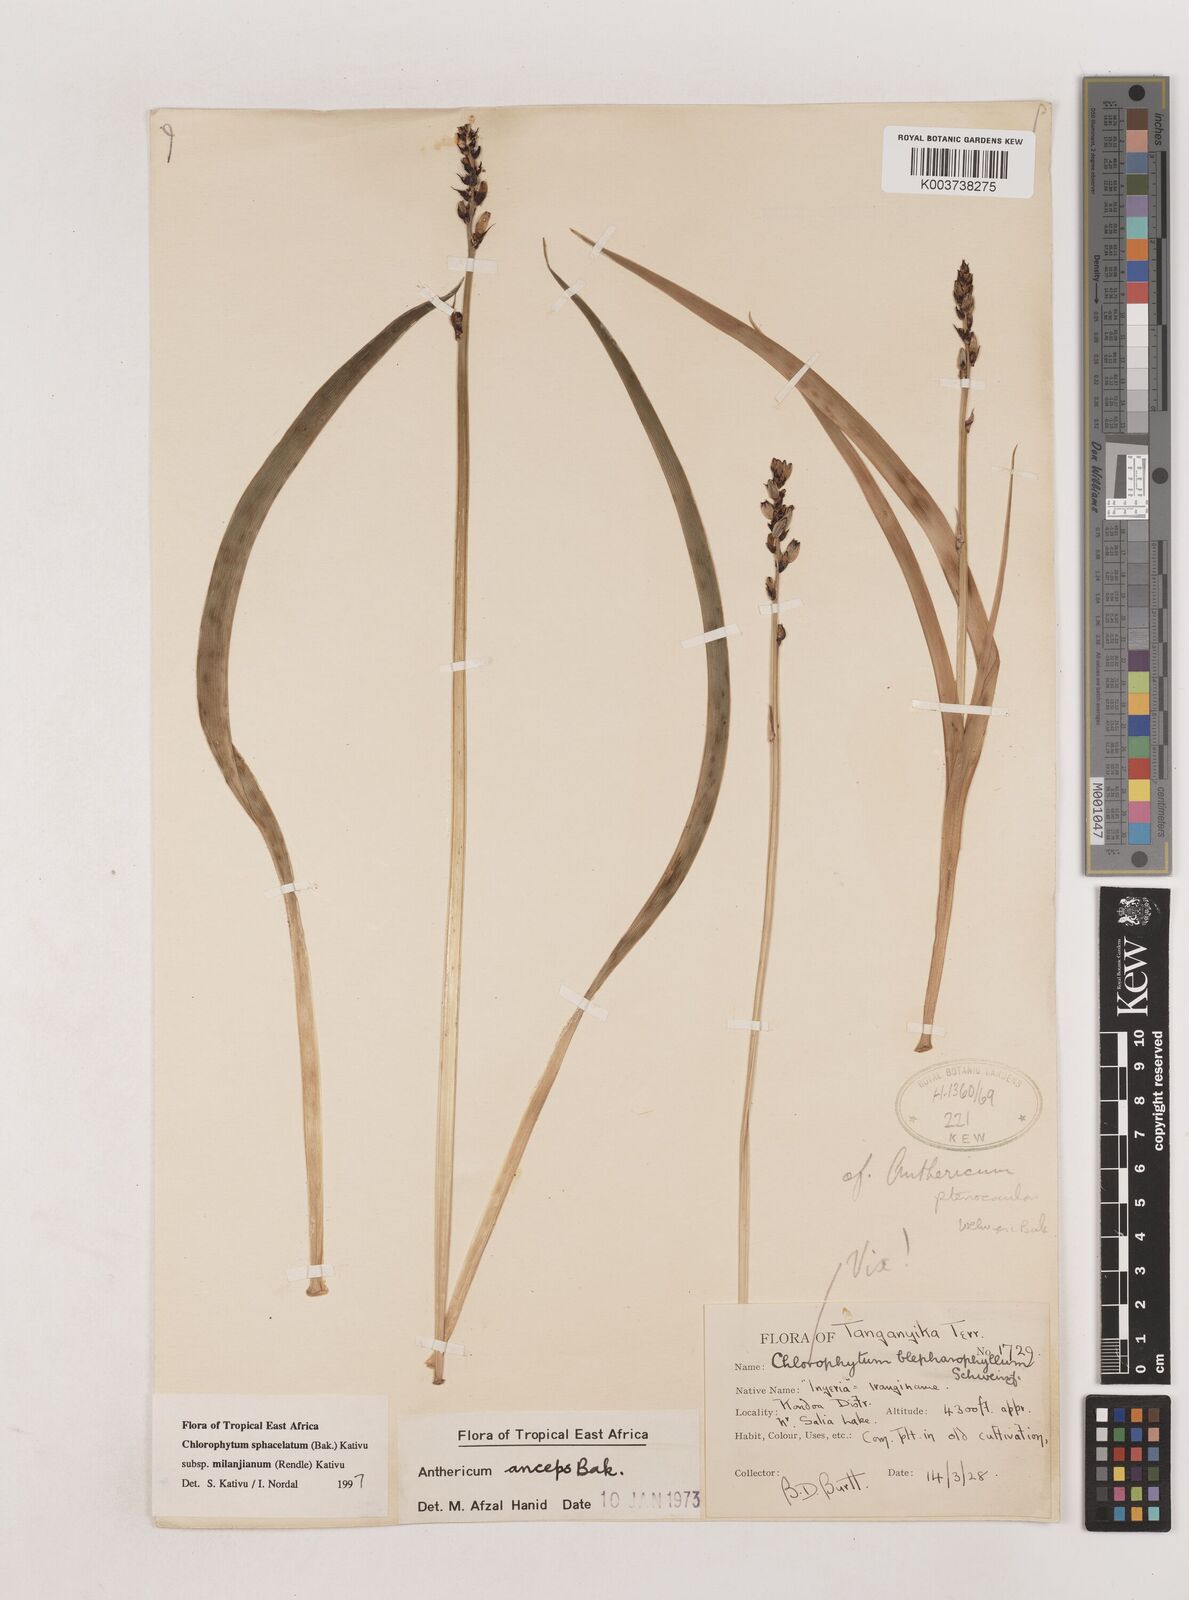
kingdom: Plantae
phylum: Tracheophyta
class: Liliopsida
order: Asparagales
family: Asparagaceae
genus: Chlorophytum
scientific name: Chlorophytum sphacelatum
